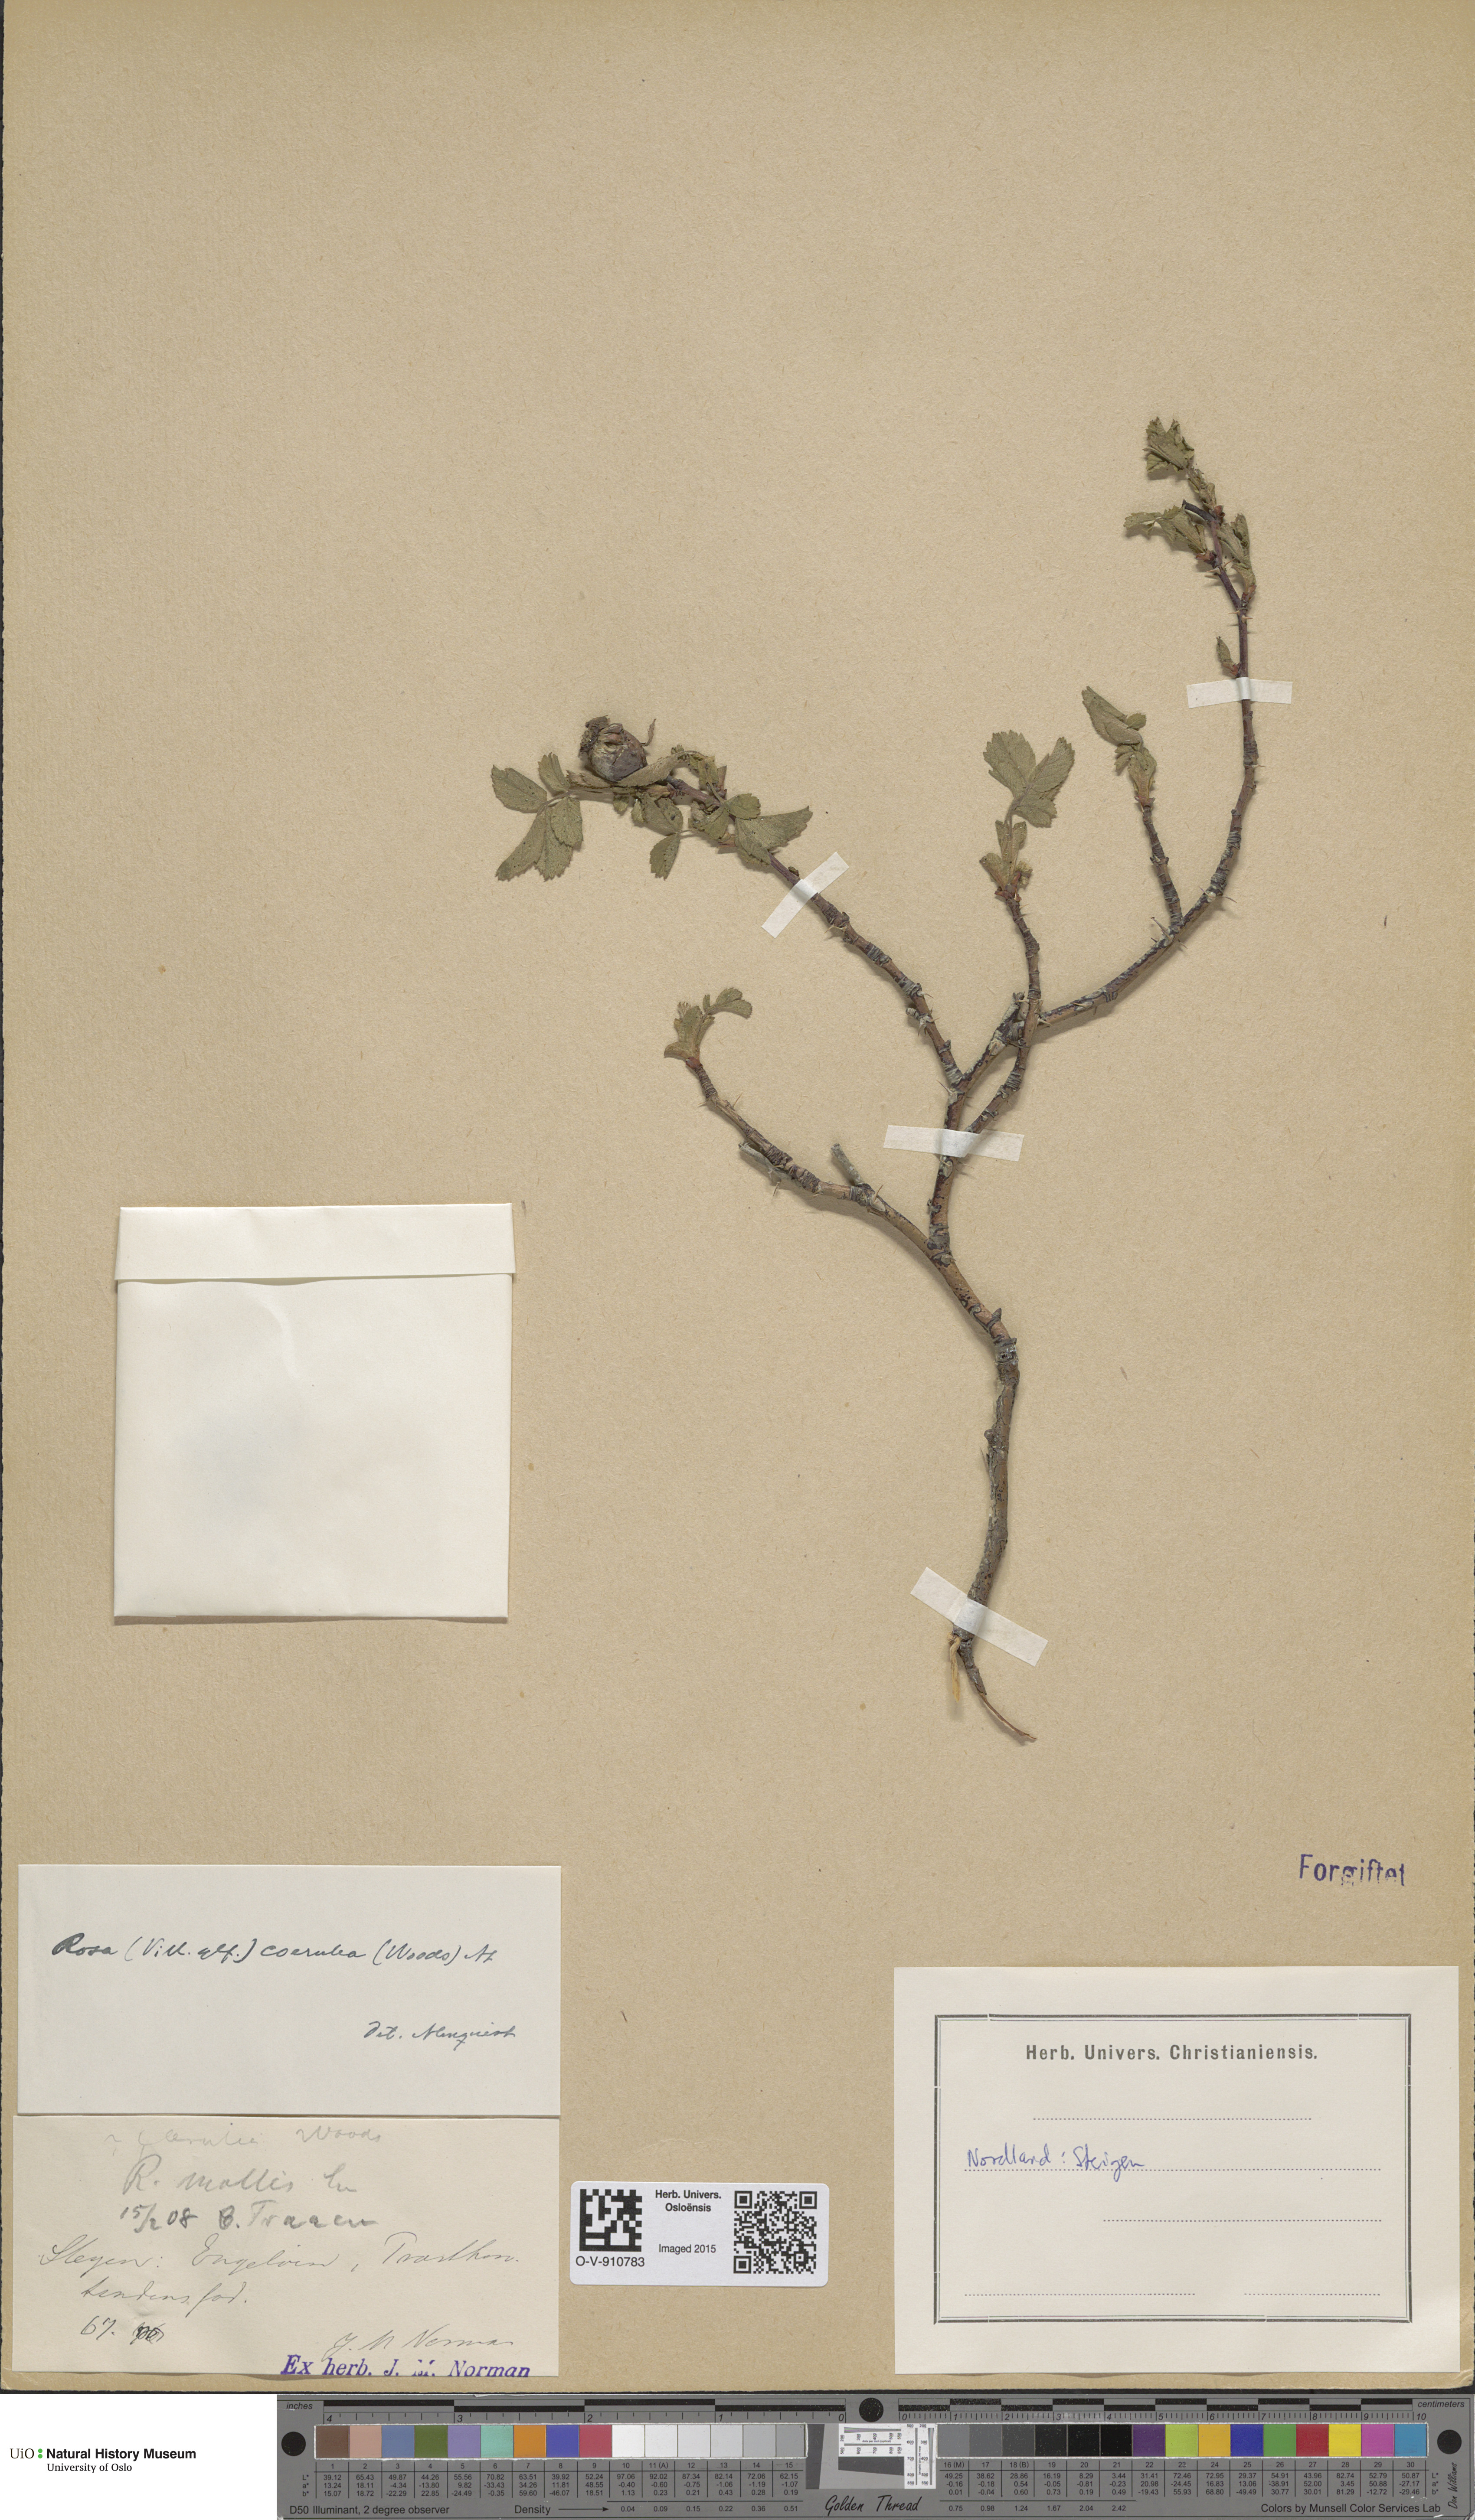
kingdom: Plantae
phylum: Tracheophyta
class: Magnoliopsida
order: Rosales
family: Rosaceae
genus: Rosa
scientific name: Rosa mollis
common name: Rose
